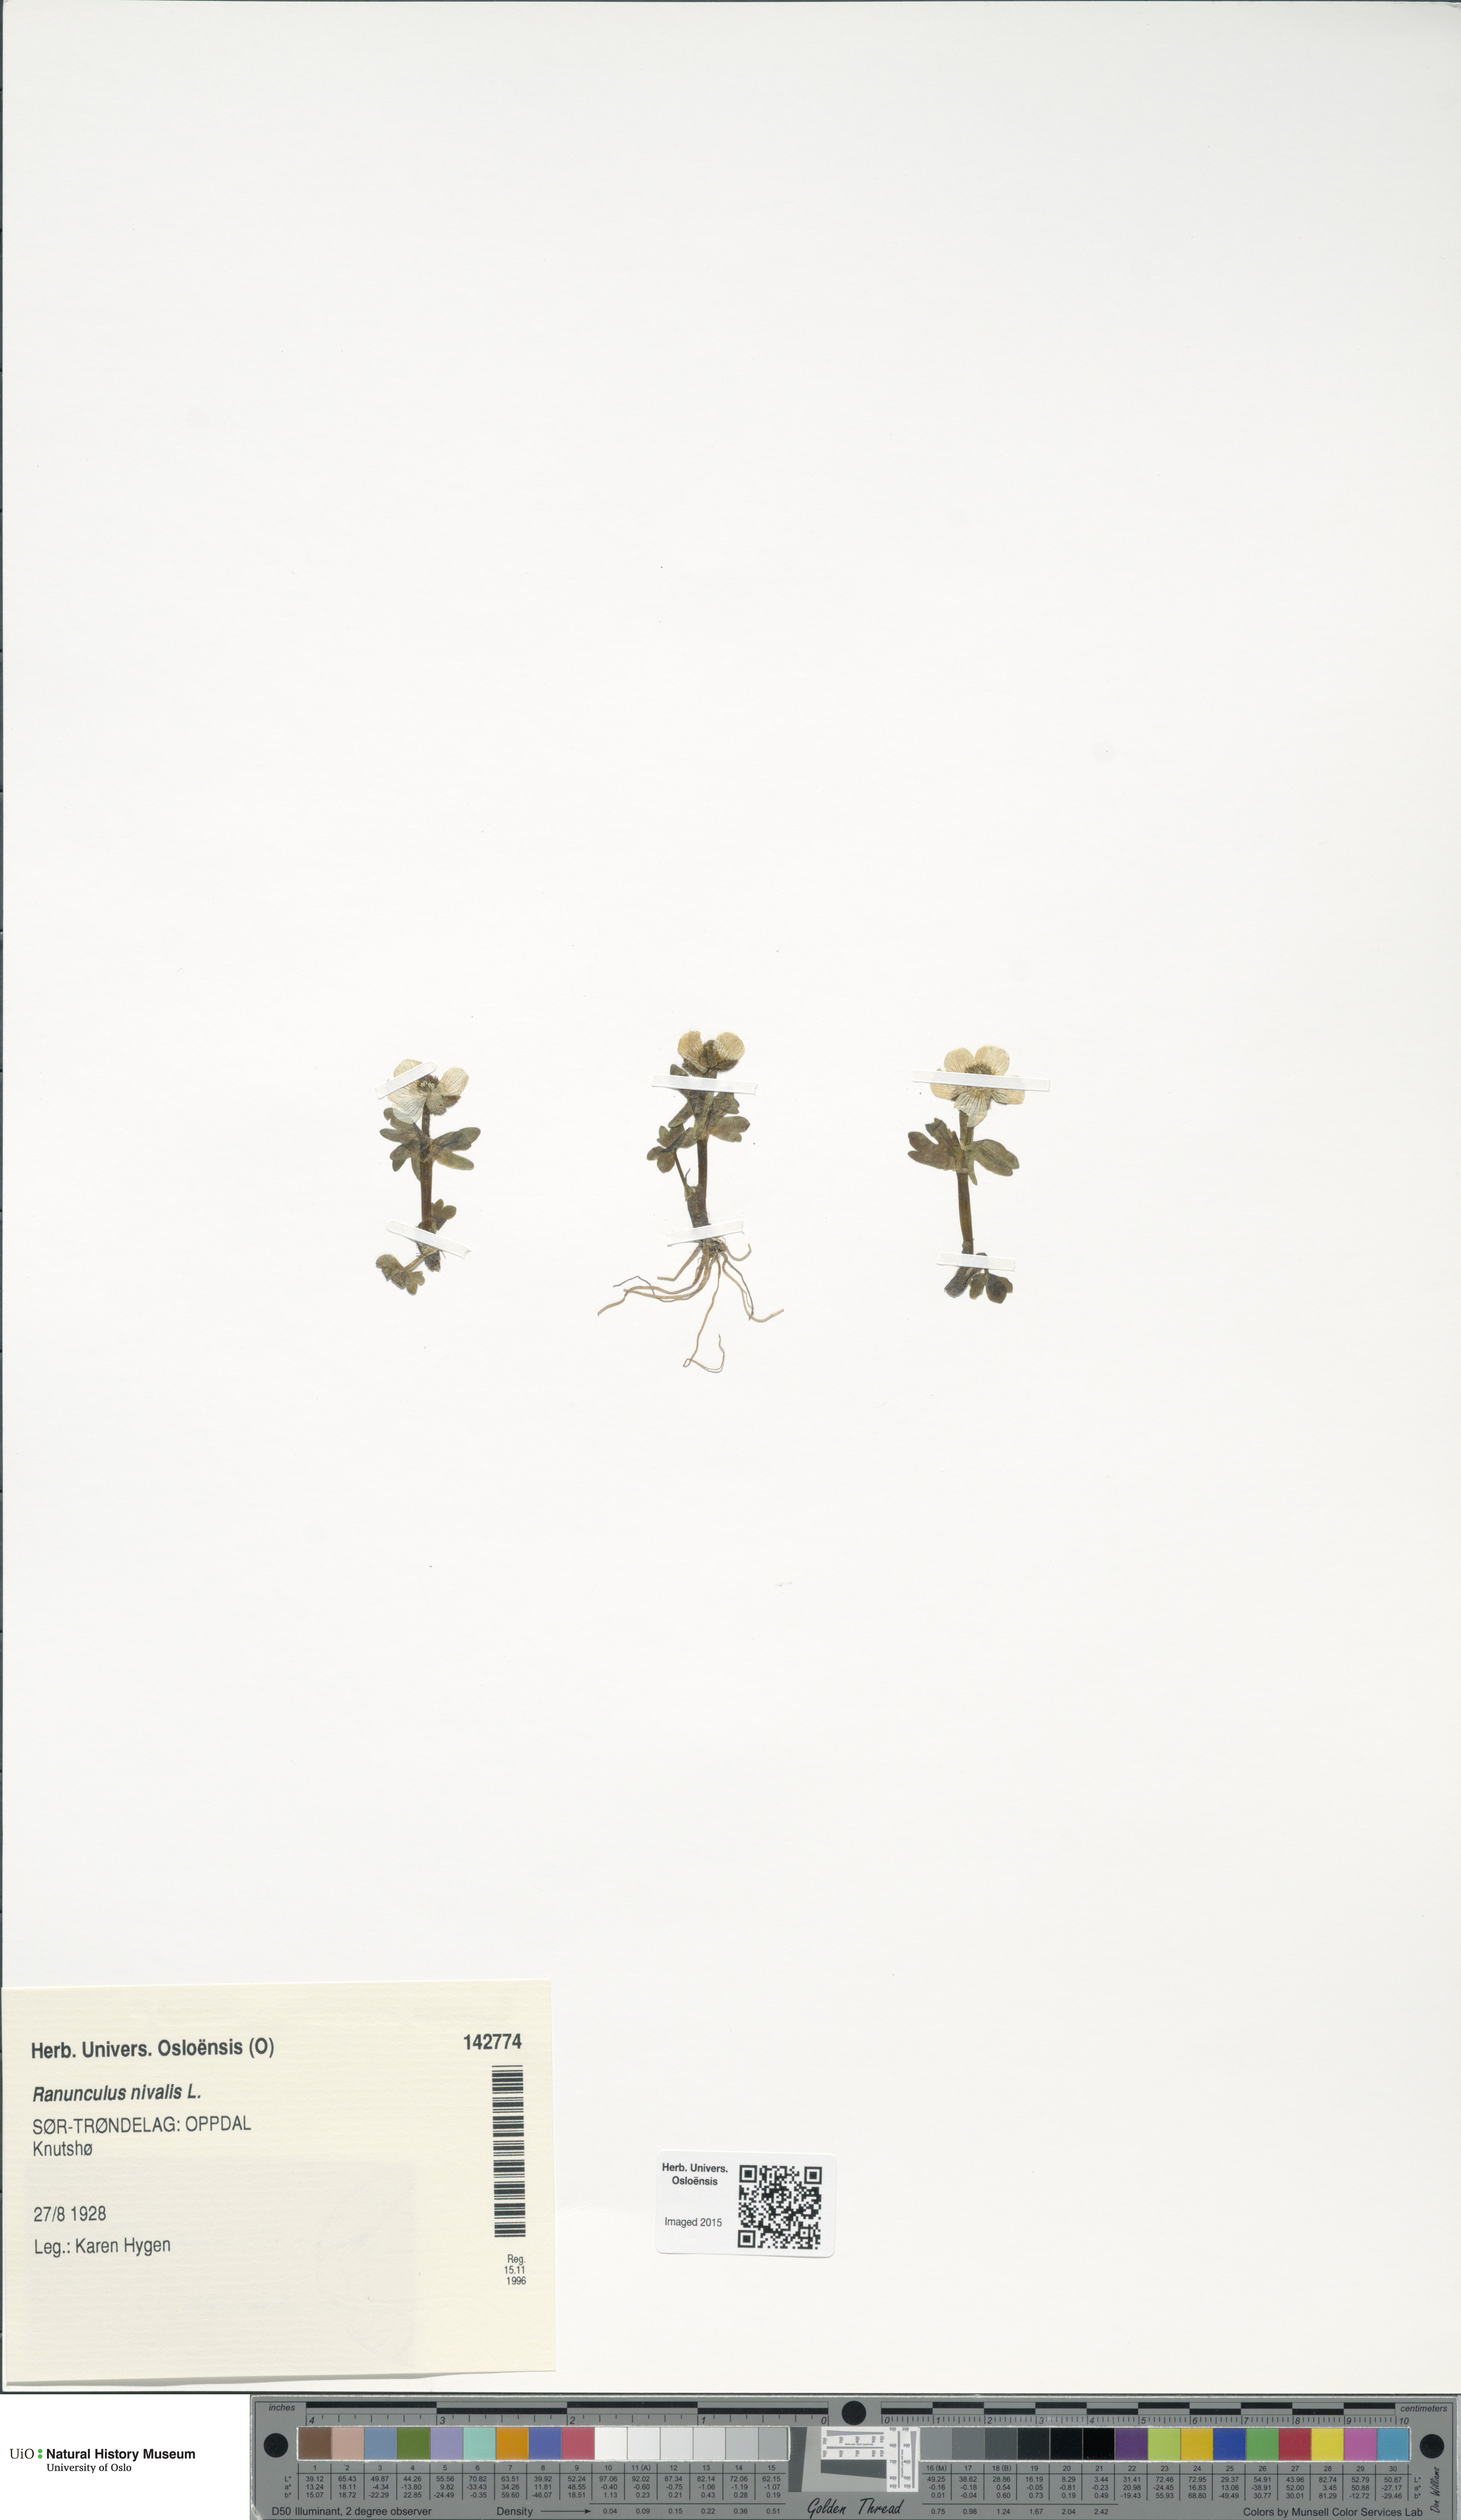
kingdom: Plantae
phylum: Tracheophyta
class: Magnoliopsida
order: Ranunculales
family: Ranunculaceae
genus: Ranunculus
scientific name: Ranunculus nivalis
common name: Snow buttercup
